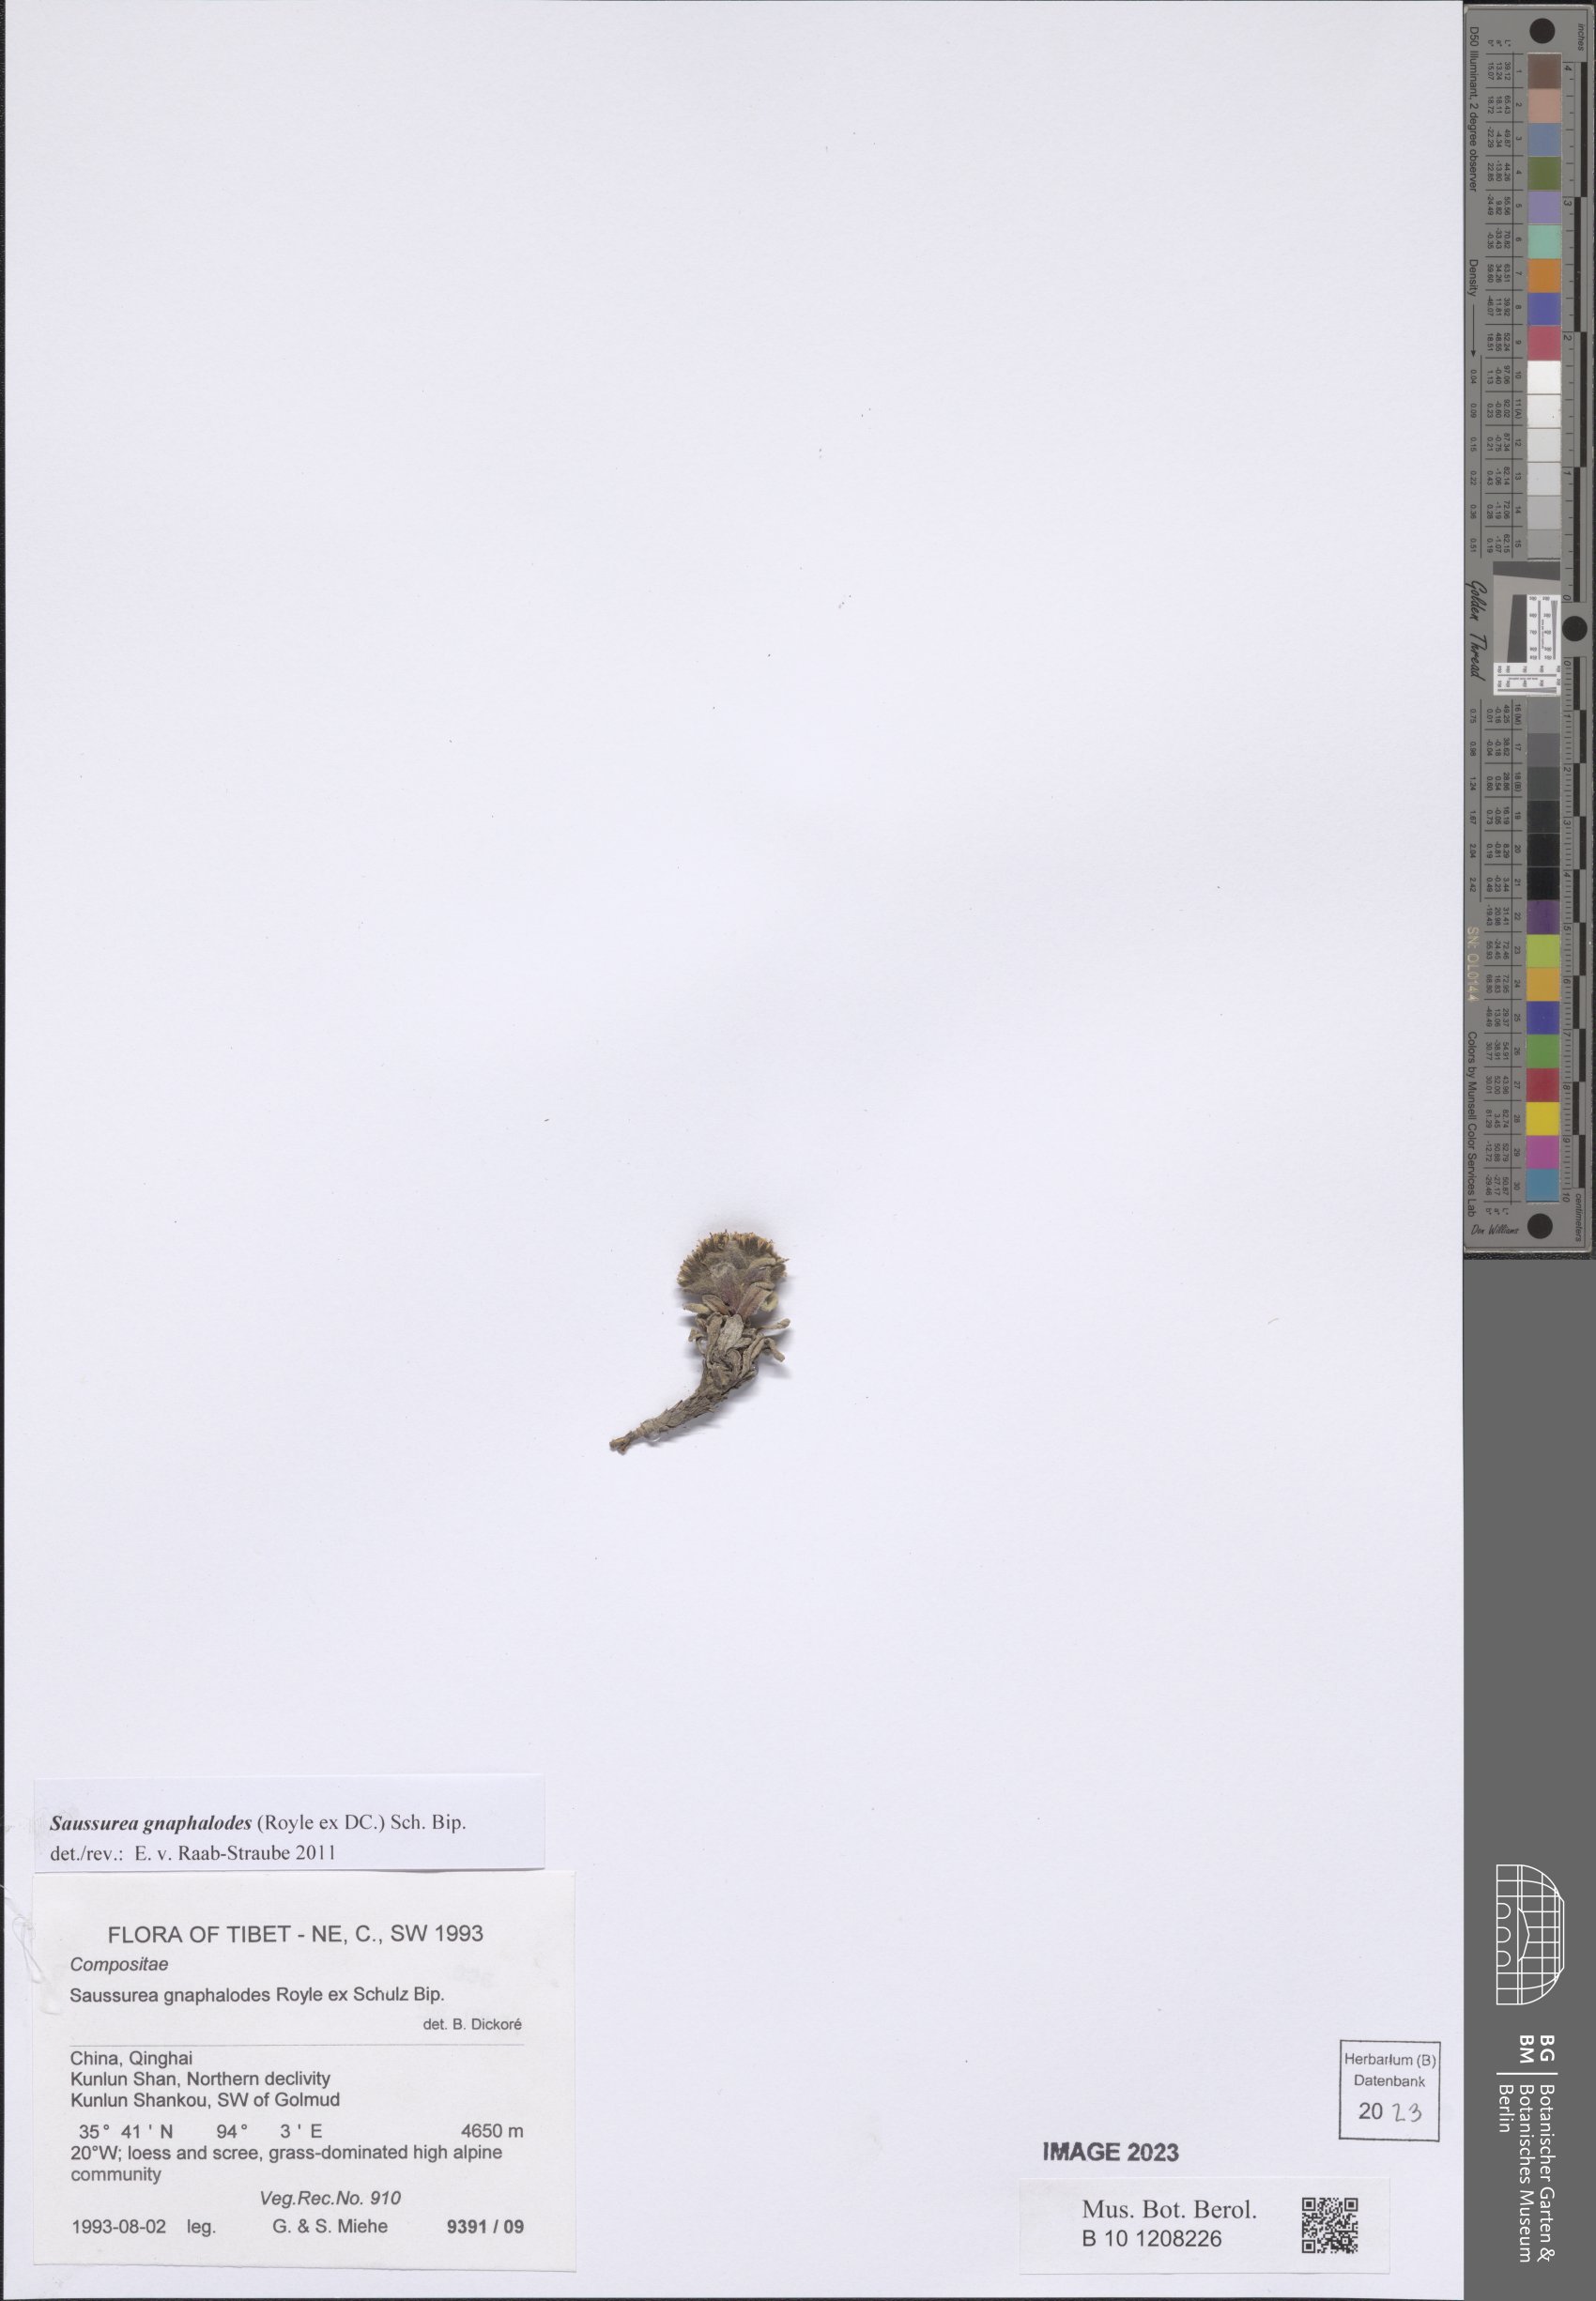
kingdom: Plantae
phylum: Tracheophyta
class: Magnoliopsida
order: Asterales
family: Asteraceae
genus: Saussurea
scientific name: Saussurea gnaphalodes
